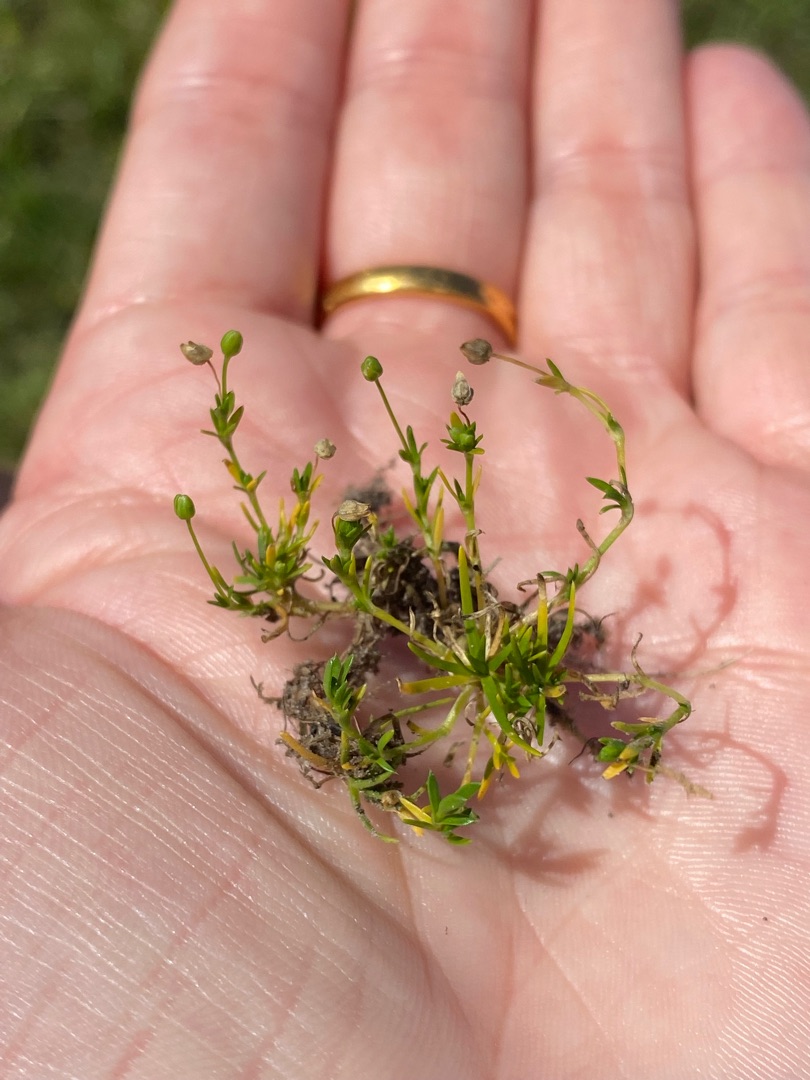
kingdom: Plantae
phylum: Tracheophyta
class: Magnoliopsida
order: Caryophyllales
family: Caryophyllaceae
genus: Sagina
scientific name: Sagina procumbens
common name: Almindelig firling
